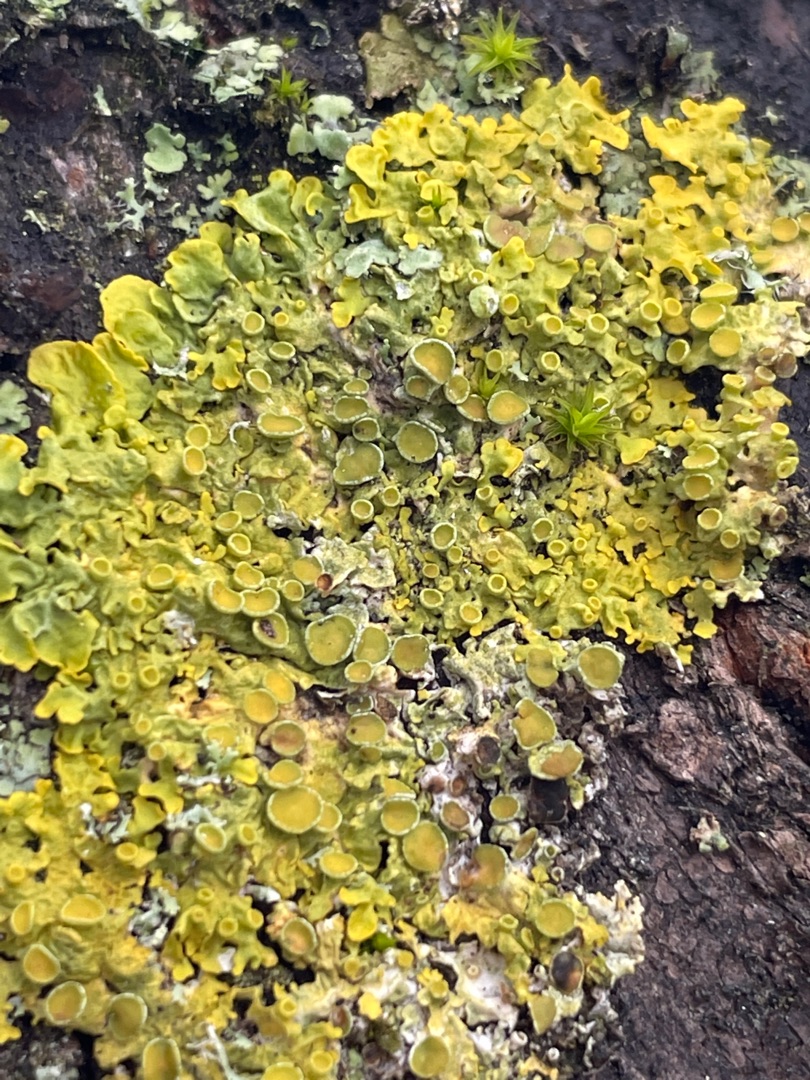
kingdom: Fungi
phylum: Ascomycota
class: Lecanoromycetes
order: Teloschistales
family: Teloschistaceae
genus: Xanthoria
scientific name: Xanthoria parietina
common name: Almindelig væggelav
